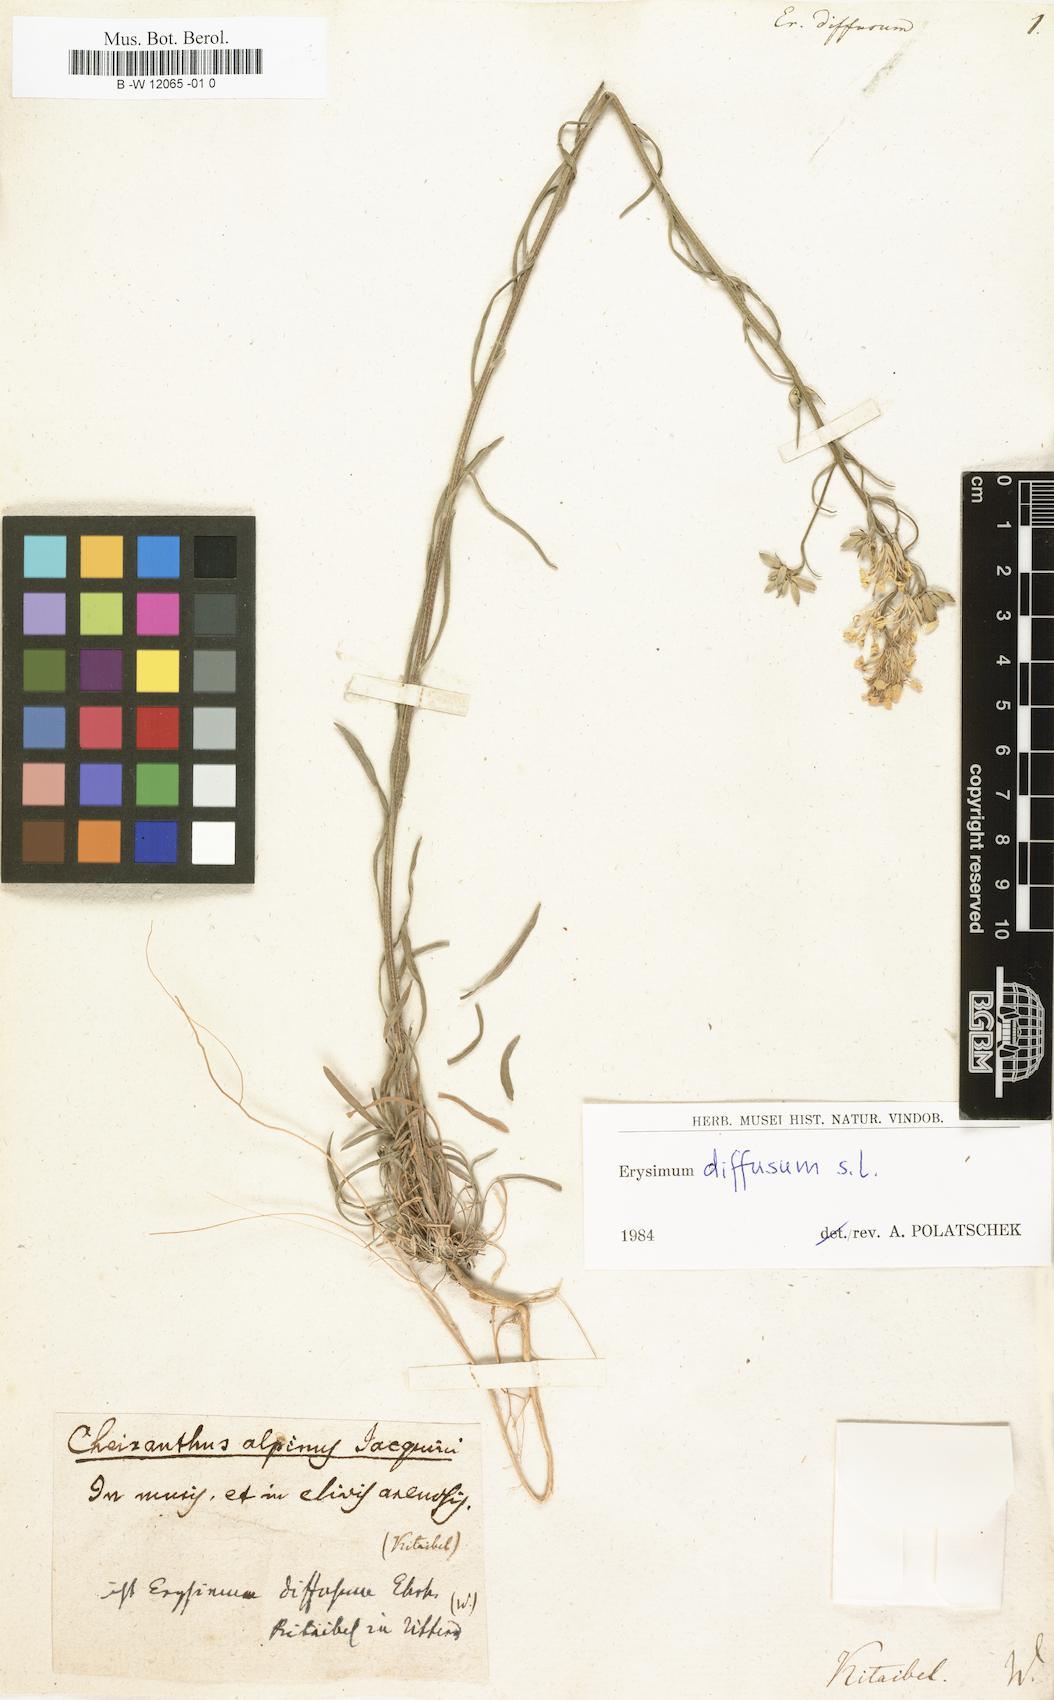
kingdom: Plantae
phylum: Tracheophyta
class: Magnoliopsida
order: Brassicales
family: Brassicaceae
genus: Erysimum
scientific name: Erysimum diffusum
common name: Diffuse wallflower
